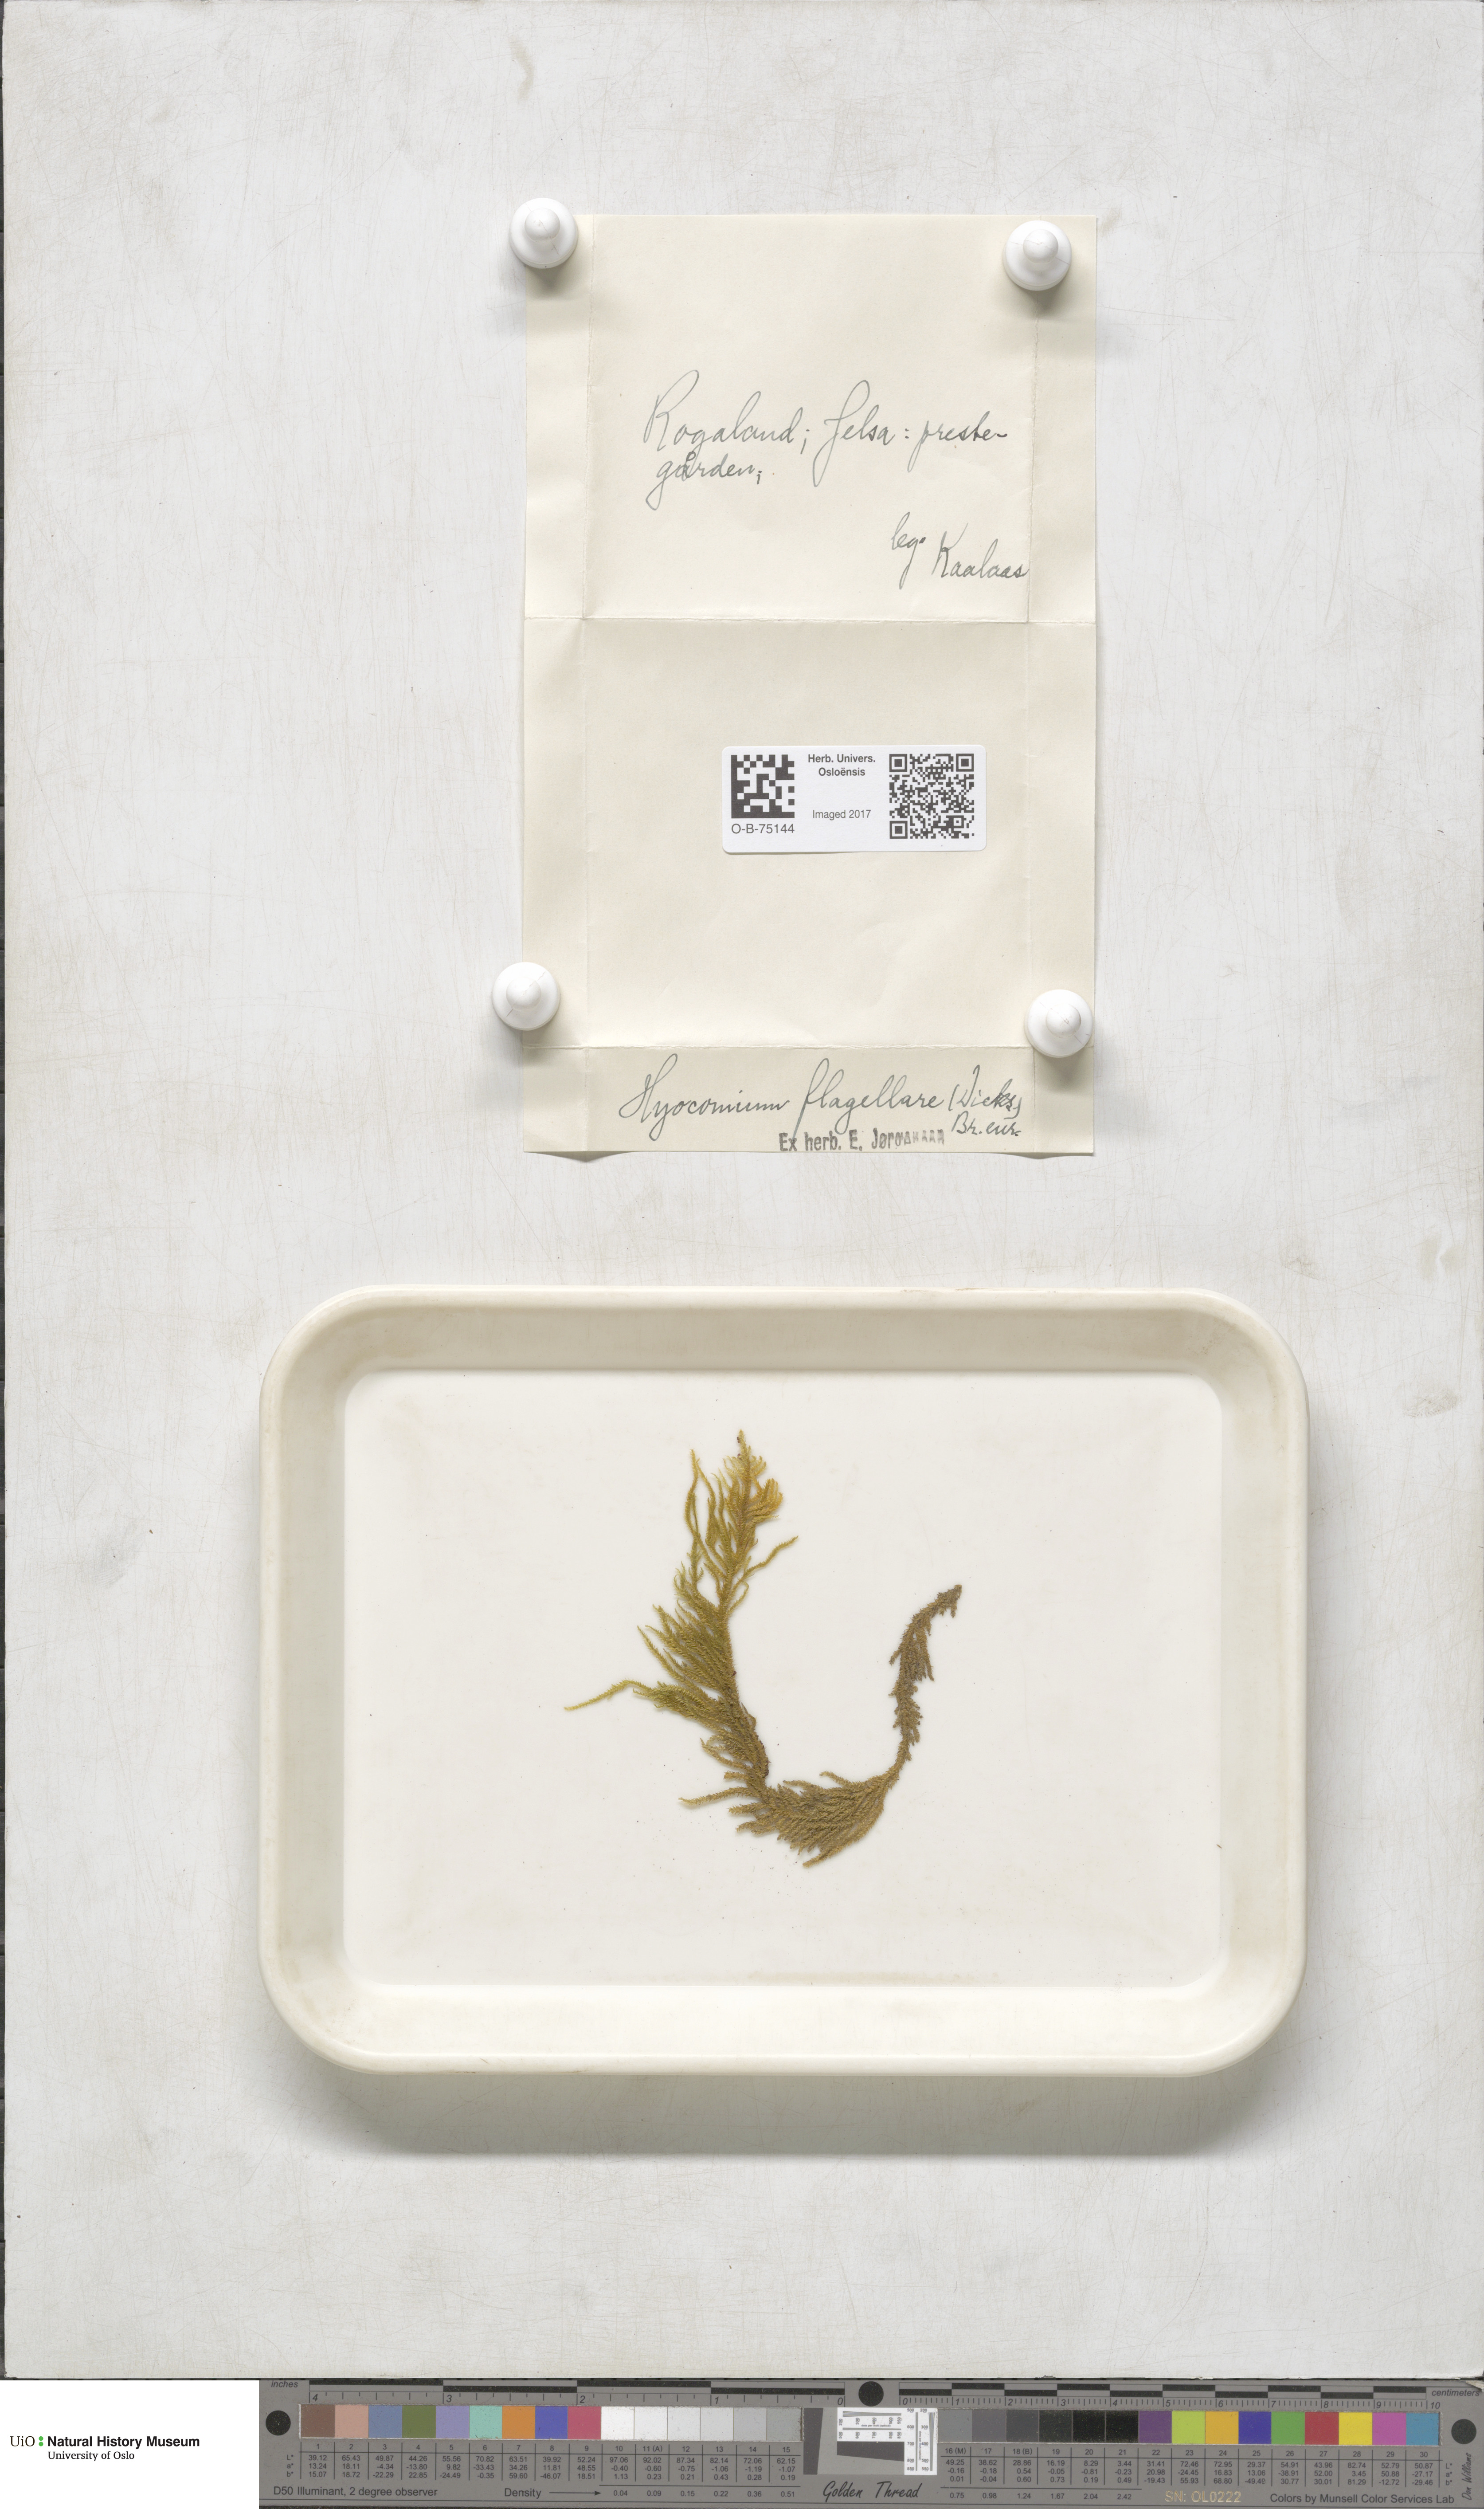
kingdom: Plantae
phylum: Bryophyta
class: Bryopsida
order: Hypnales
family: Myuriaceae
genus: Hyocomium
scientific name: Hyocomium armoricum
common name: Flagellate feather-moss
